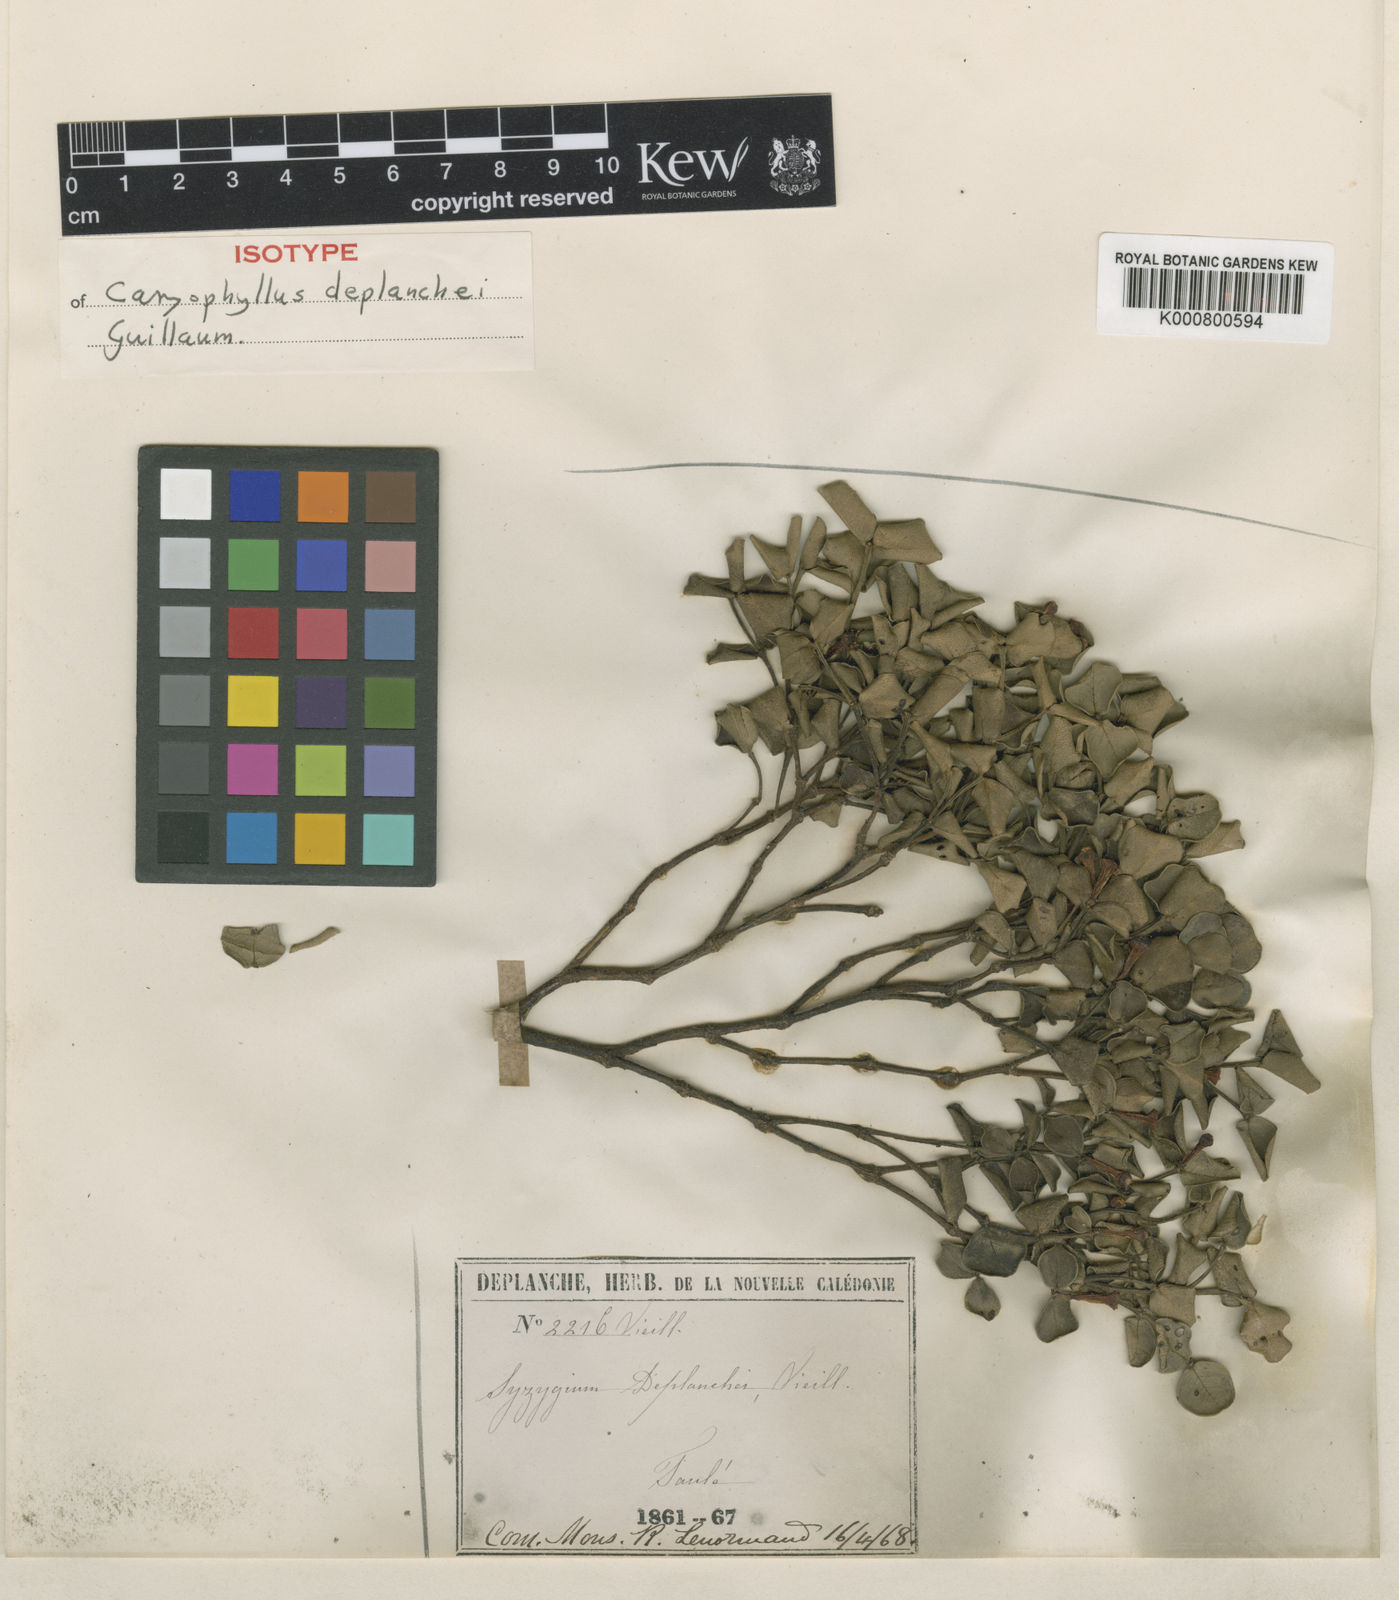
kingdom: Plantae
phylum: Tracheophyta
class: Magnoliopsida
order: Myrtales
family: Myrtaceae
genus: Syzygium
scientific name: Syzygium
